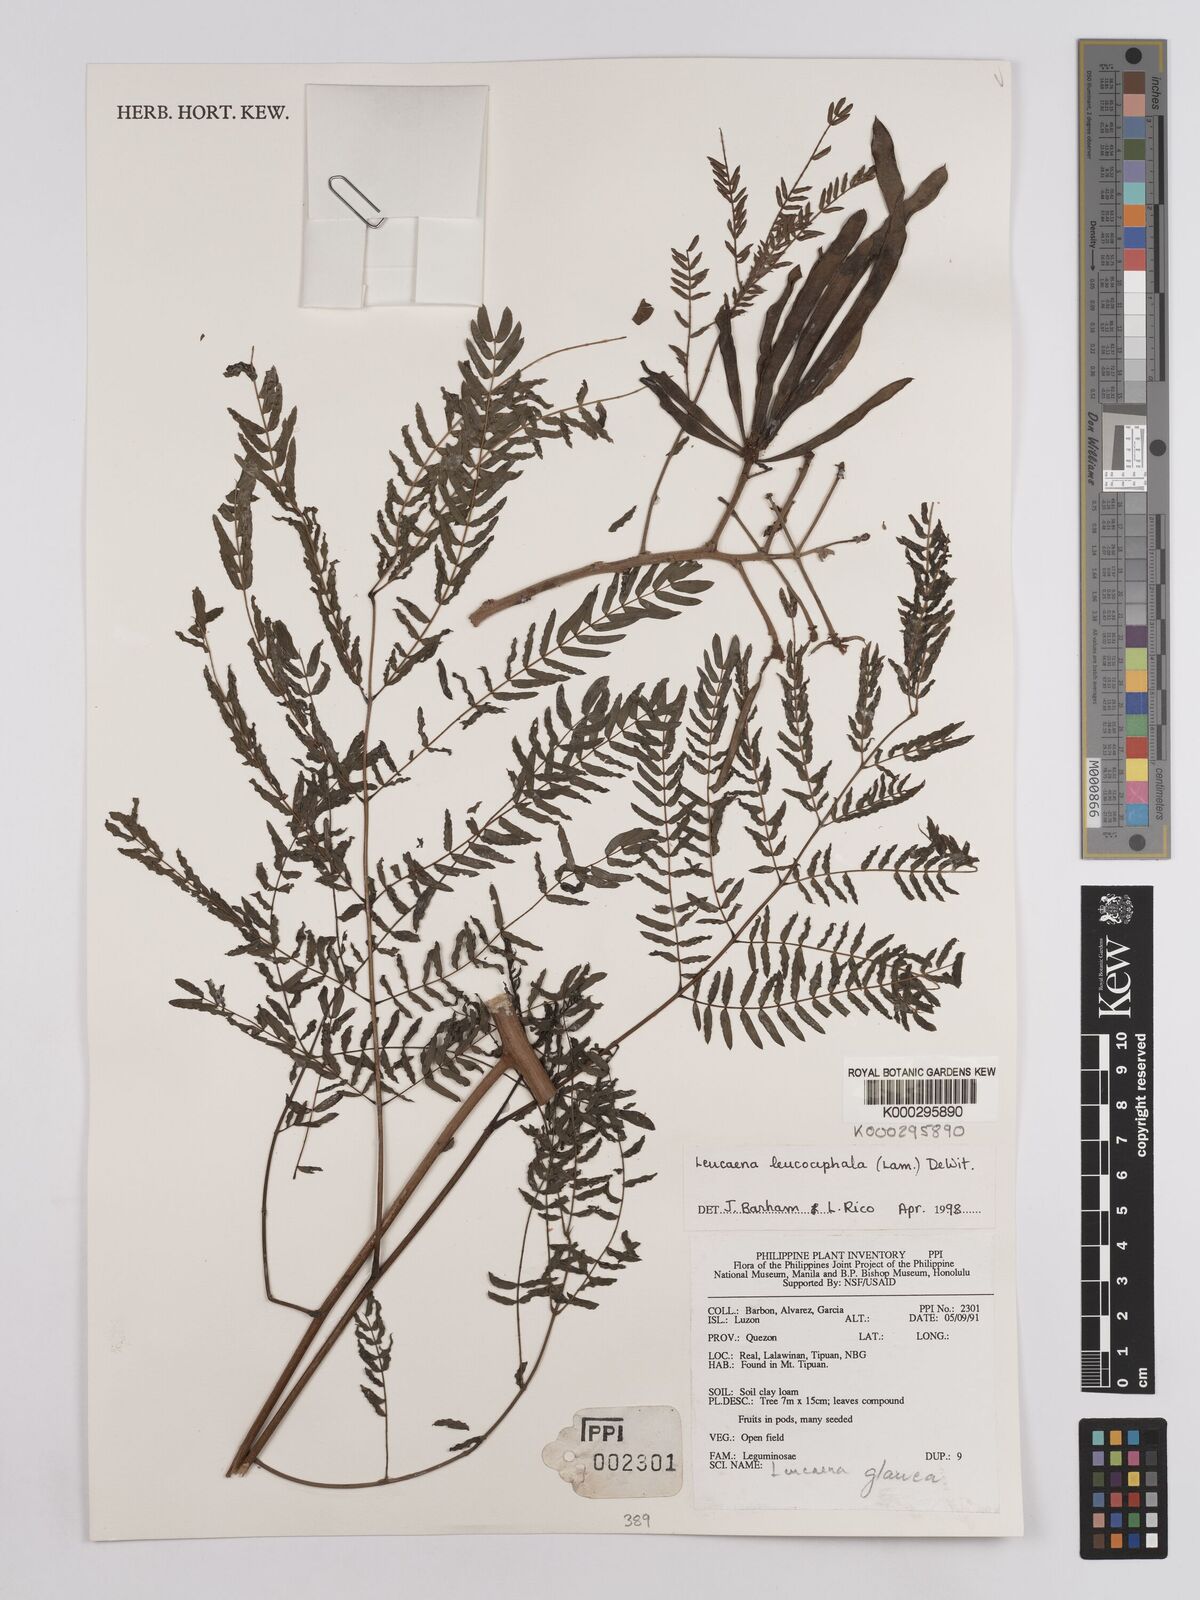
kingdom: Plantae
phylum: Tracheophyta
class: Magnoliopsida
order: Fabales
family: Fabaceae
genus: Leucaena
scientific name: Leucaena leucocephala
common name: White leadtree
